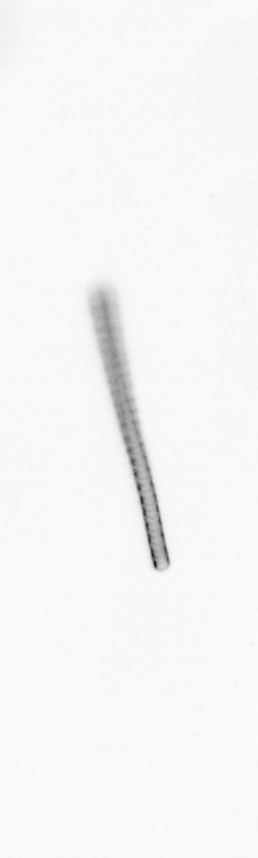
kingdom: Chromista
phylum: Ochrophyta
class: Bacillariophyceae
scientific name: Bacillariophyceae
